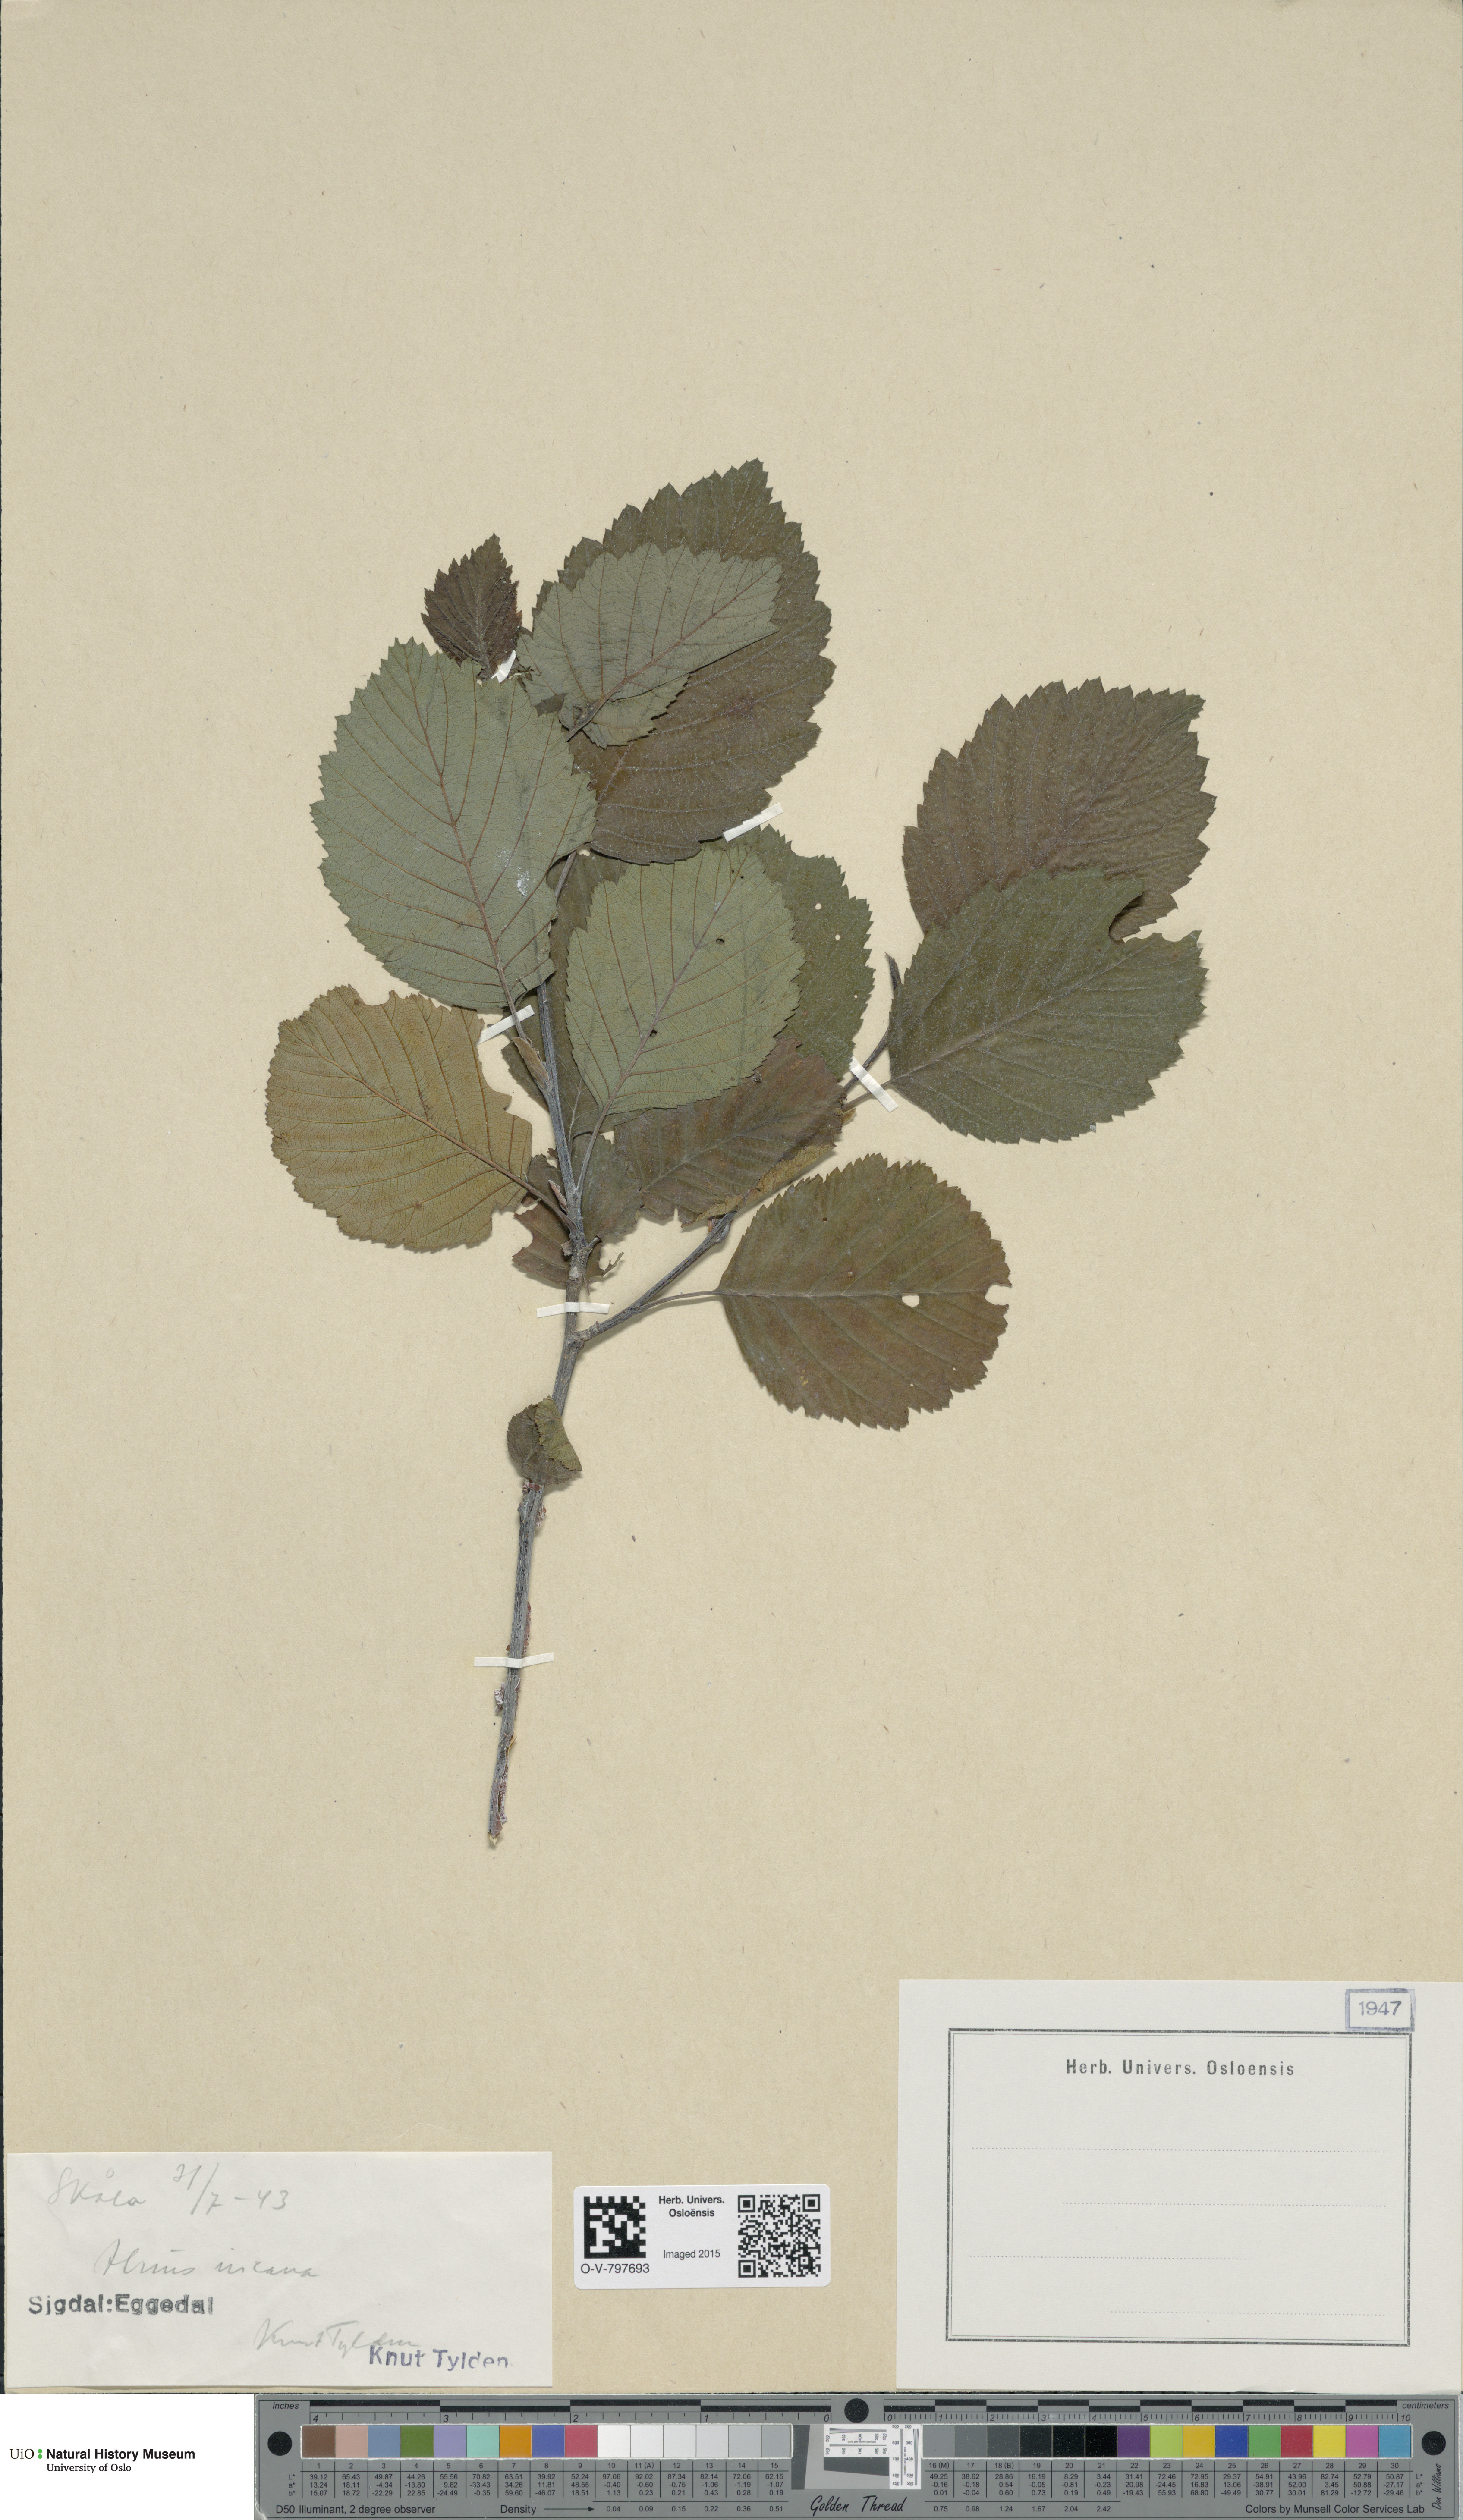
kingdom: Plantae
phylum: Tracheophyta
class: Magnoliopsida
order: Fagales
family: Betulaceae
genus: Alnus
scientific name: Alnus incana
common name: Grey alder
